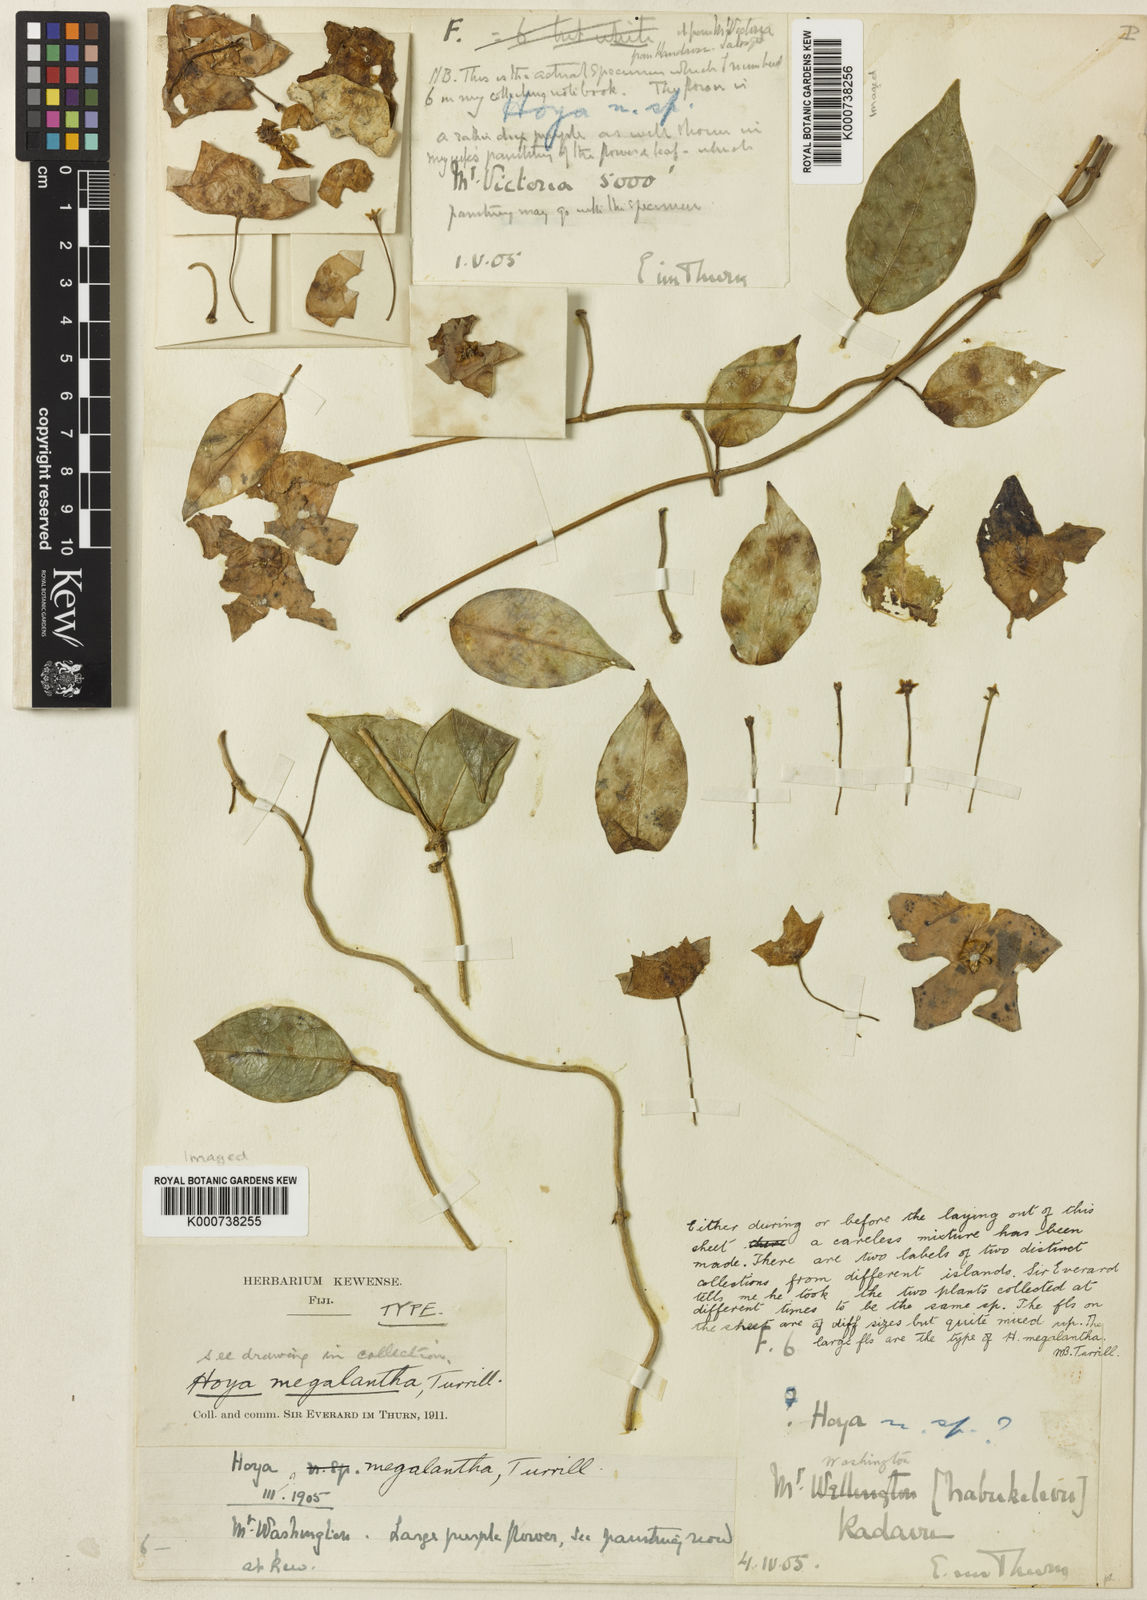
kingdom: Plantae
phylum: Tracheophyta
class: Magnoliopsida
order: Gentianales
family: Apocynaceae
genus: Hoya
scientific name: Hoya megalantha
